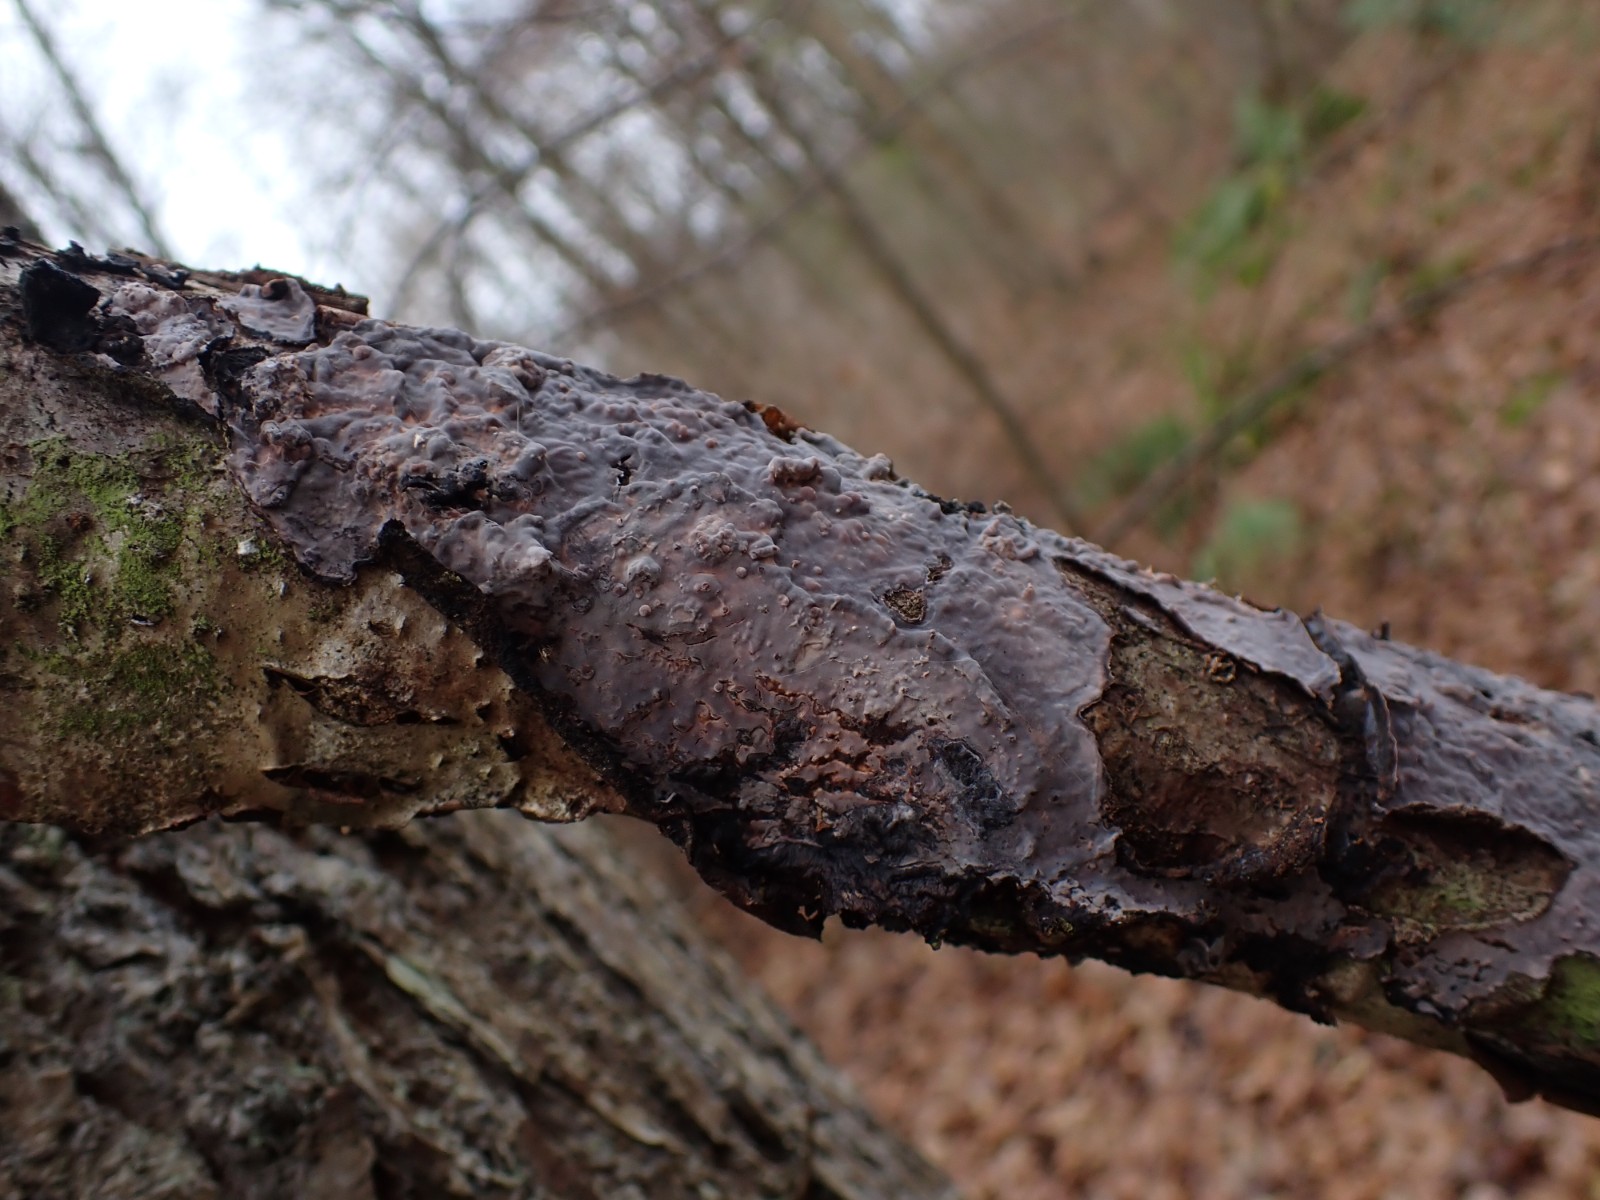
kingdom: Fungi
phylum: Basidiomycota
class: Agaricomycetes
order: Russulales
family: Peniophoraceae
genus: Peniophora
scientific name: Peniophora quercina
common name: ege-voksskind
